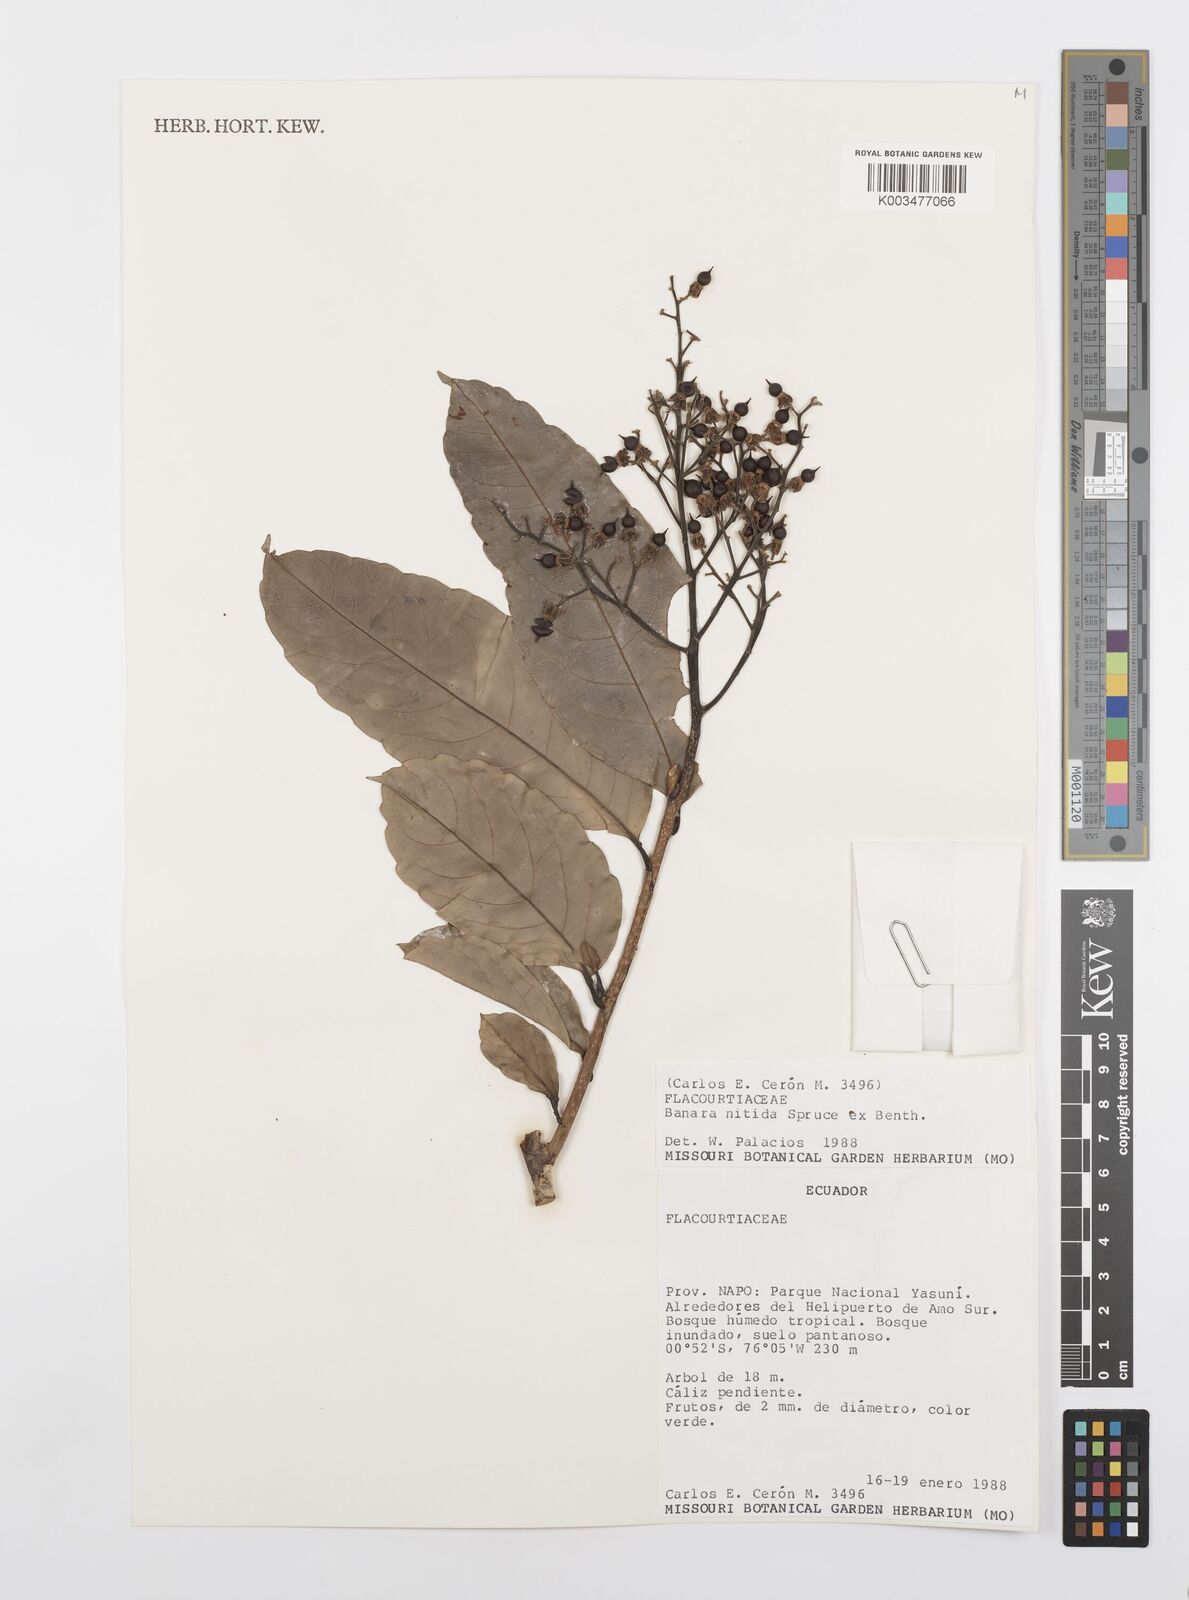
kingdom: Plantae
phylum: Tracheophyta
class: Magnoliopsida
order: Malpighiales
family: Salicaceae
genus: Banara
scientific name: Banara nitida
